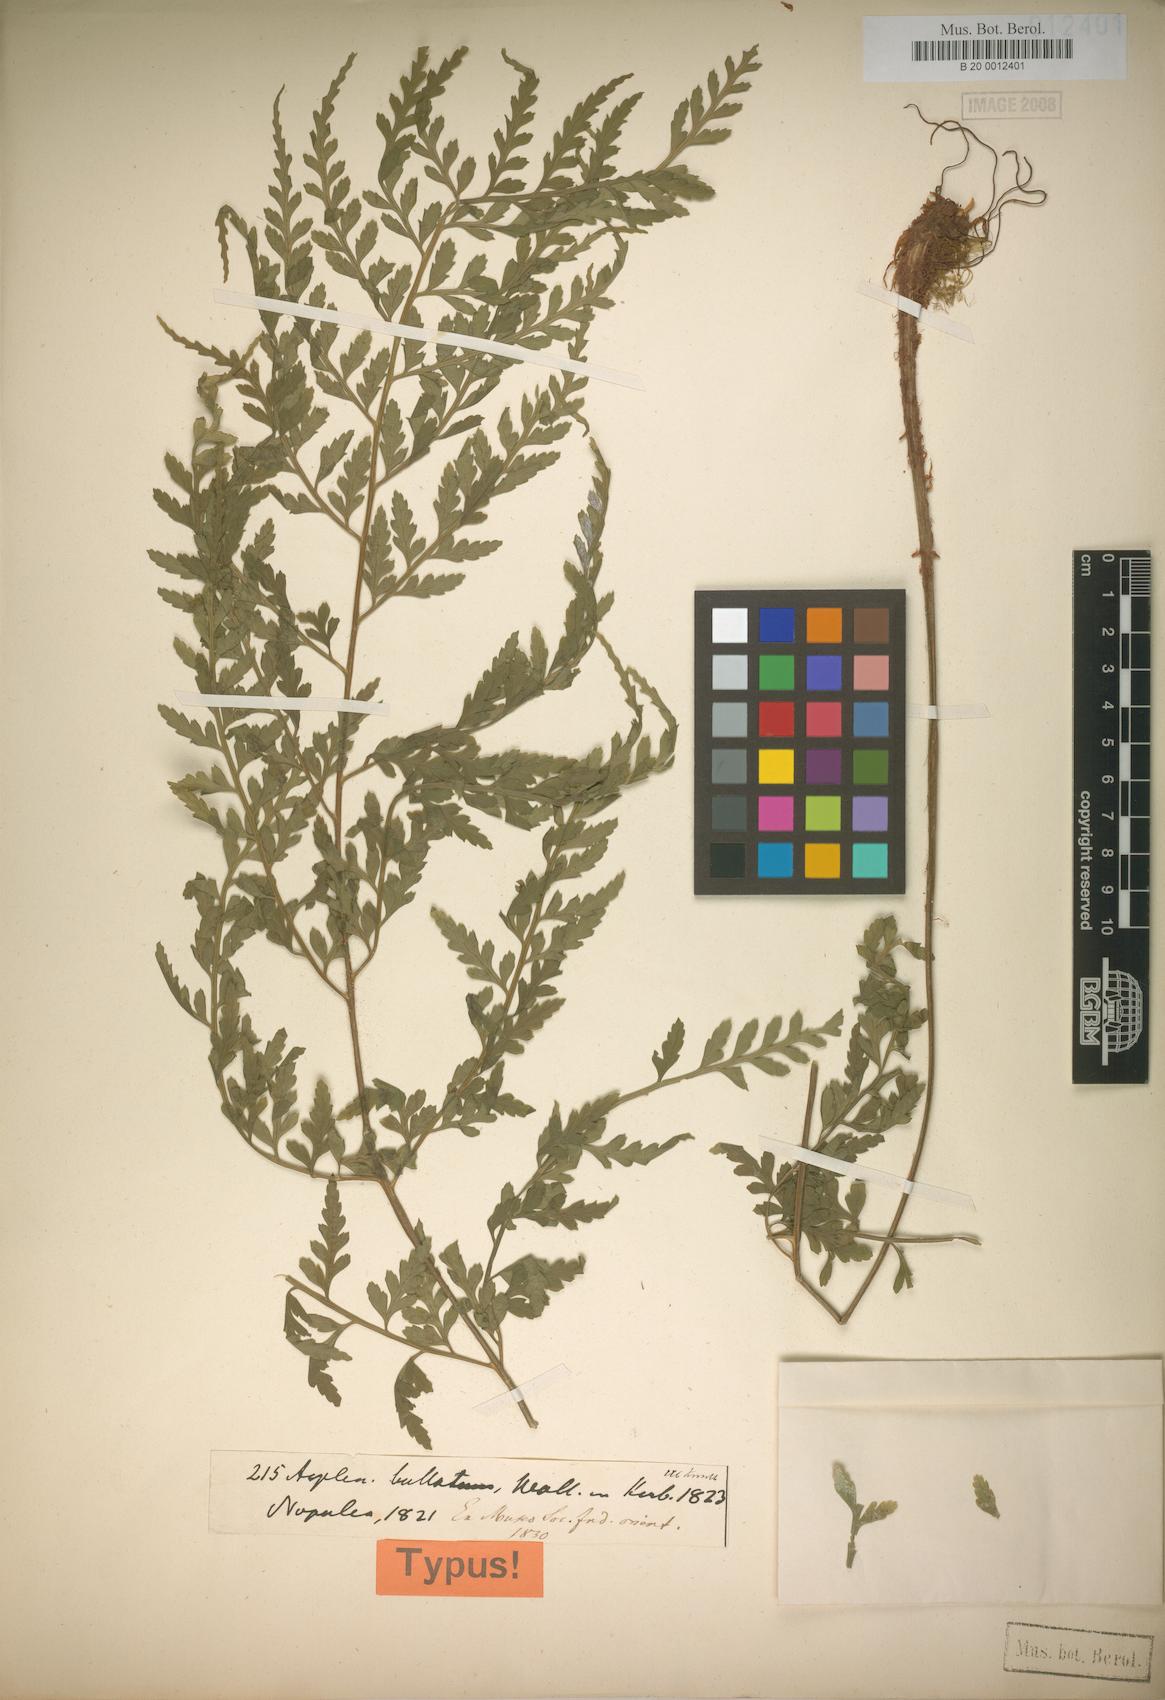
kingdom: Plantae
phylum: Tracheophyta
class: Polypodiopsida
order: Polypodiales
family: Aspleniaceae
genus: Asplenium
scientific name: Asplenium bullatum
